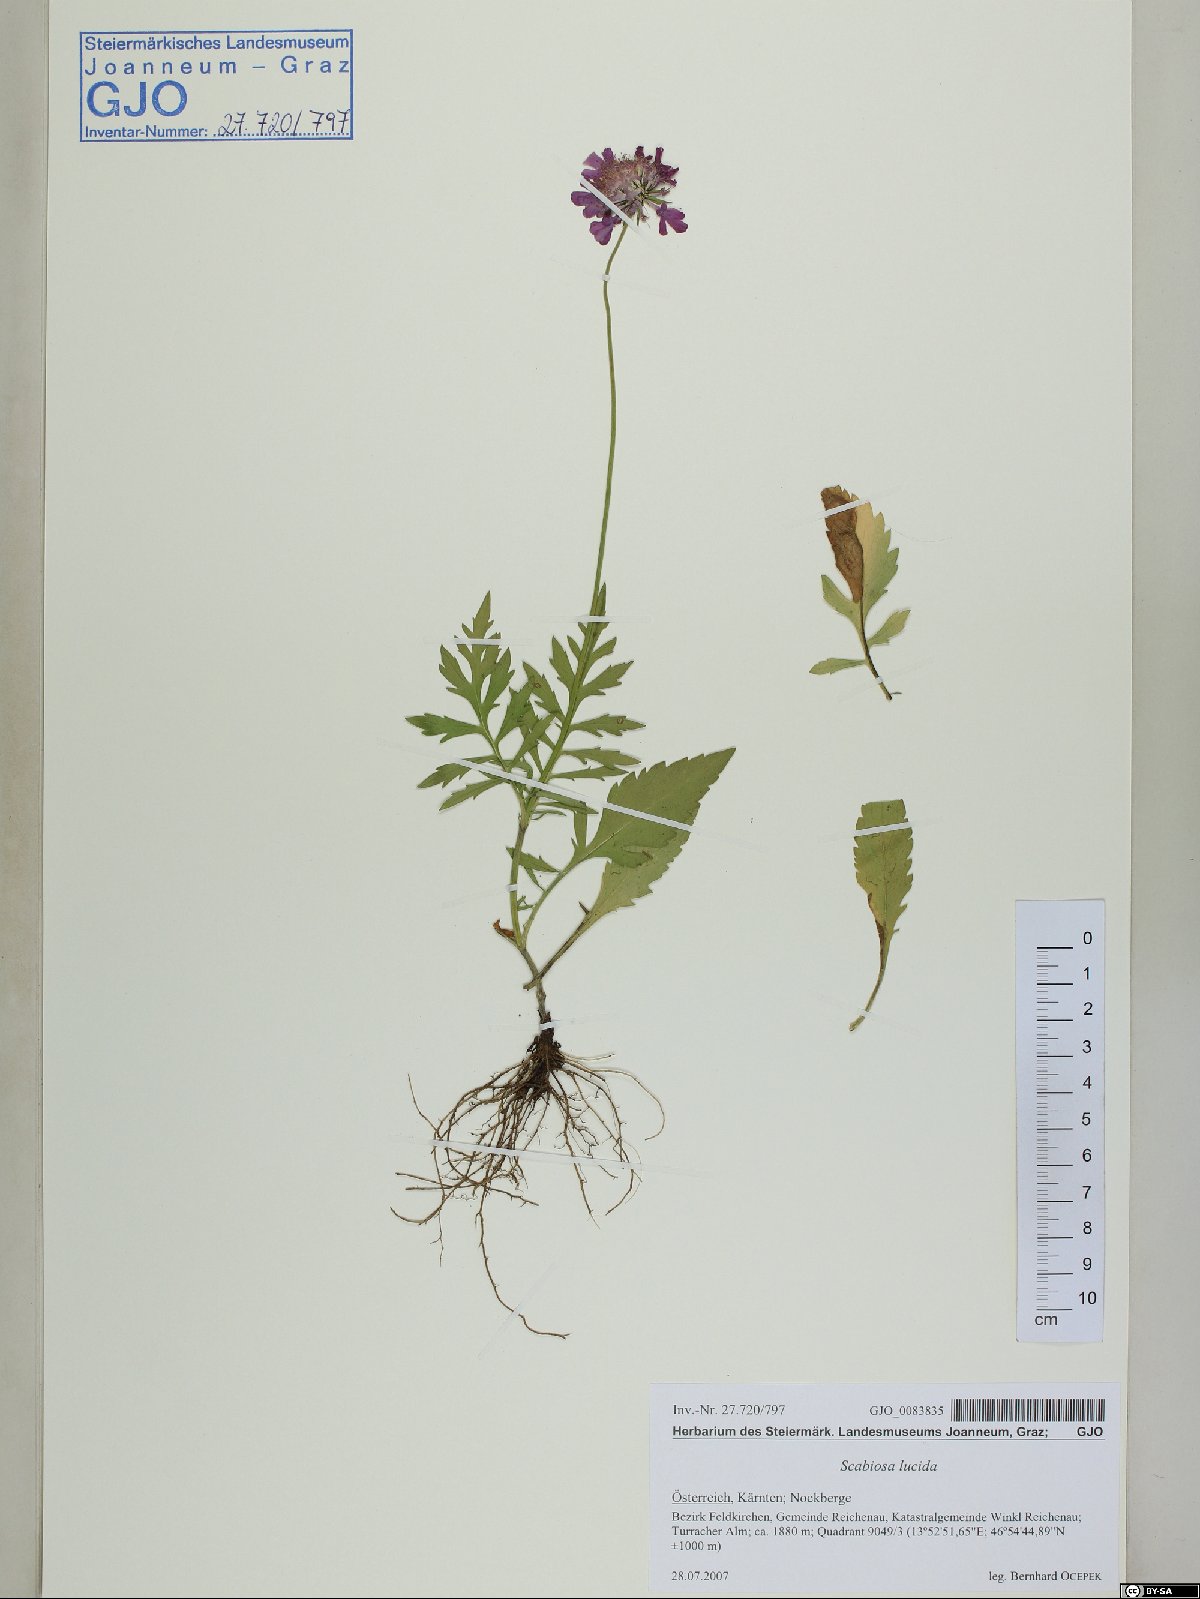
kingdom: Plantae
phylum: Tracheophyta
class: Magnoliopsida
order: Dipsacales
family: Caprifoliaceae
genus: Scabiosa
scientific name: Scabiosa lucida
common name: Shining scabious
